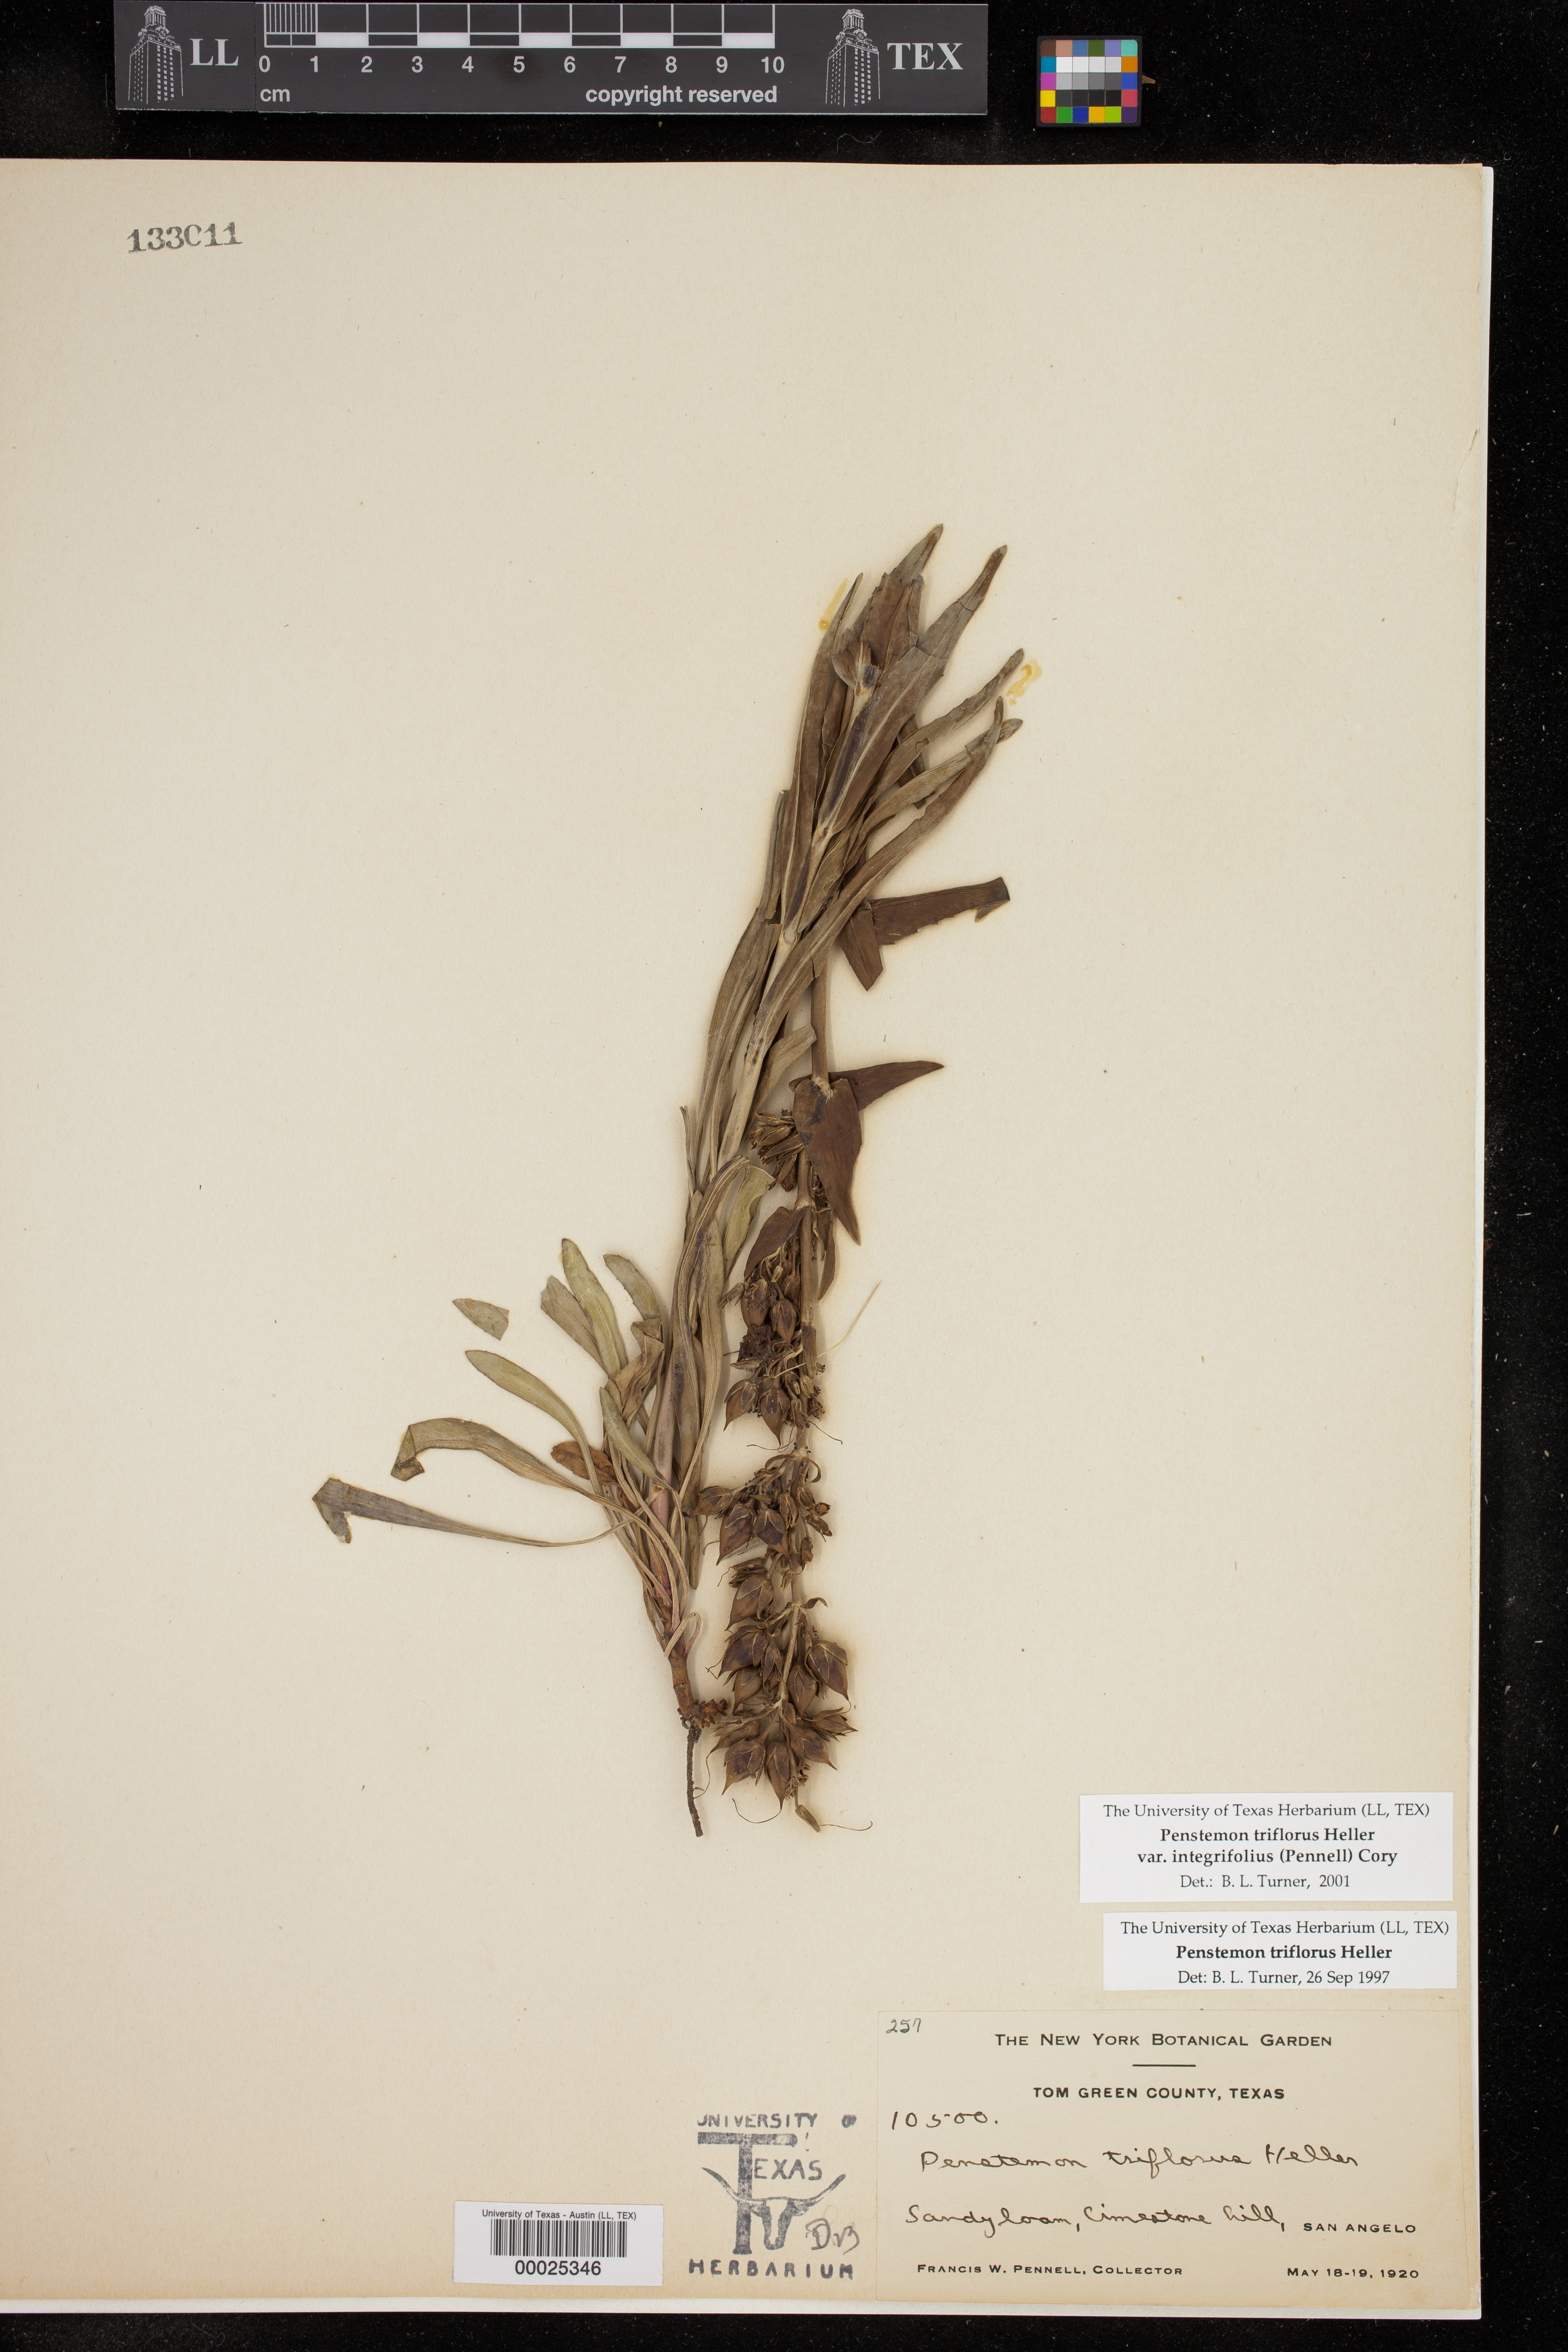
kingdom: Plantae
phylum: Tracheophyta
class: Magnoliopsida
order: Lamiales
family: Plantaginaceae
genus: Penstemon
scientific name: Penstemon triflorus
